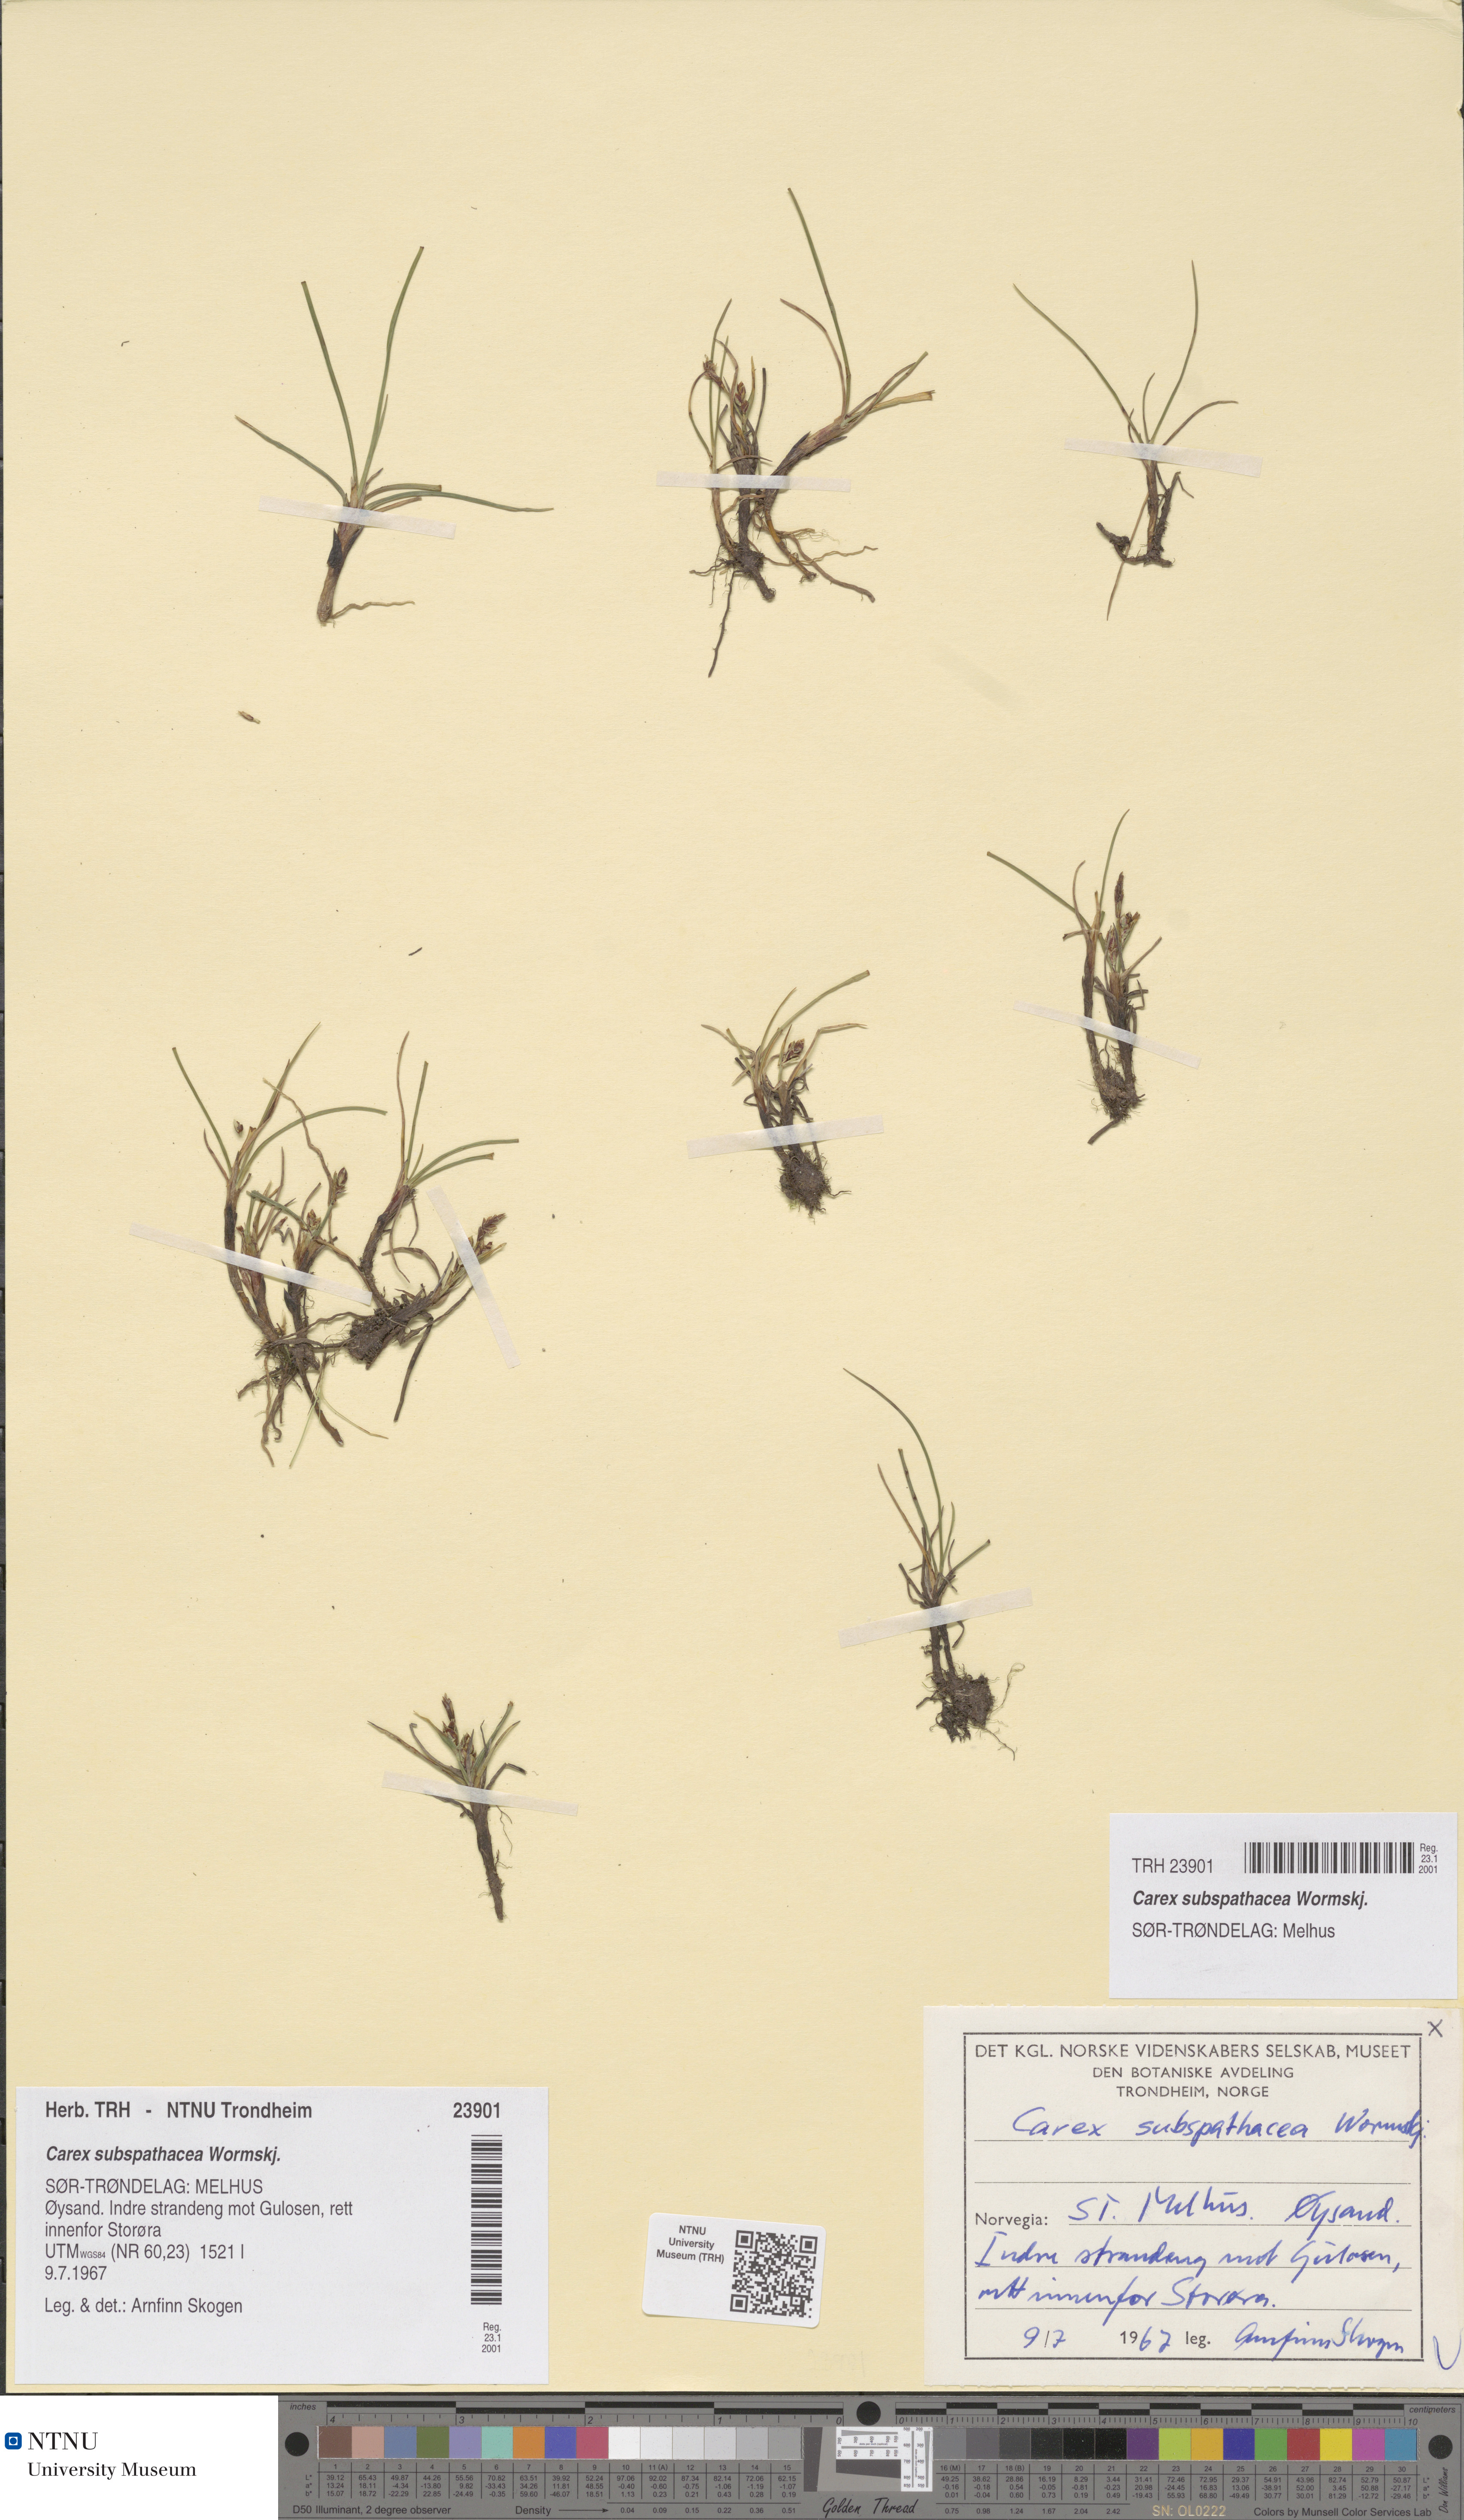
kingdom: Plantae
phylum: Tracheophyta
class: Liliopsida
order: Poales
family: Cyperaceae
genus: Carex
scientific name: Carex subspathacea
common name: Hoppner's sedge
